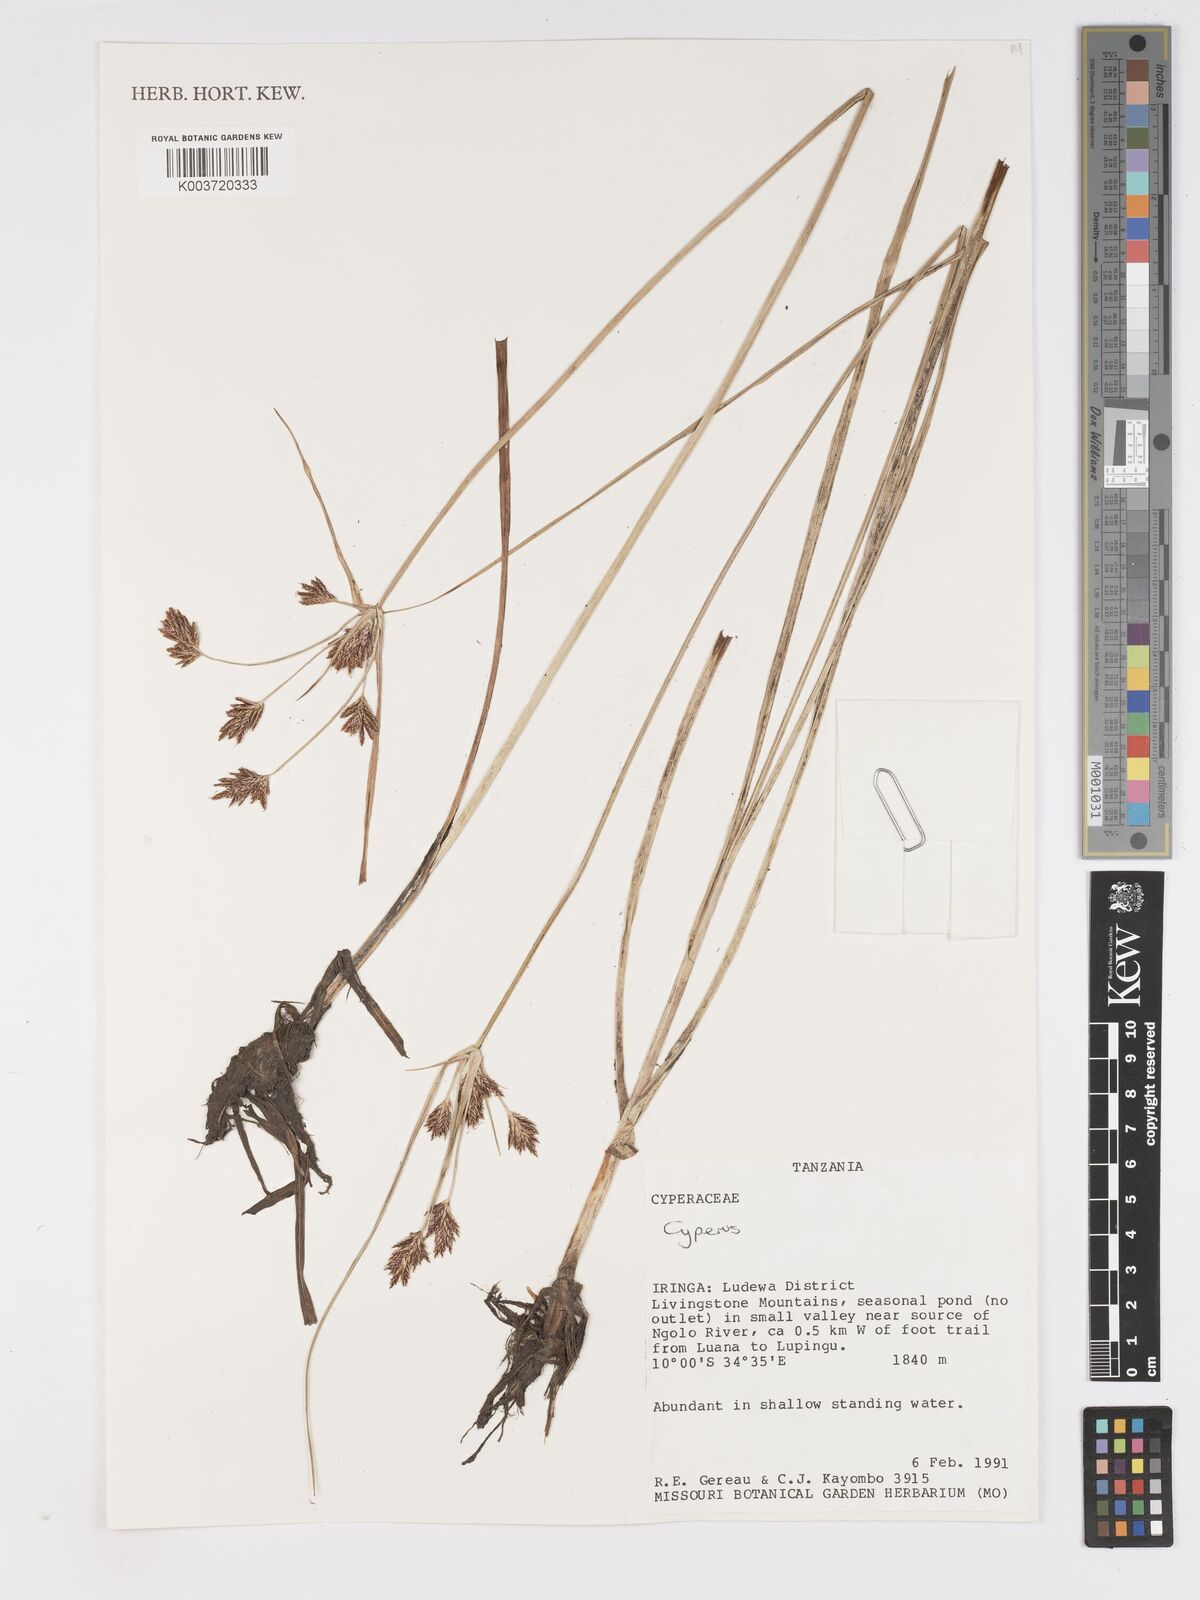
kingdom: Plantae
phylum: Tracheophyta
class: Liliopsida
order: Poales
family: Cyperaceae
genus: Cyperus
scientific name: Cyperus
